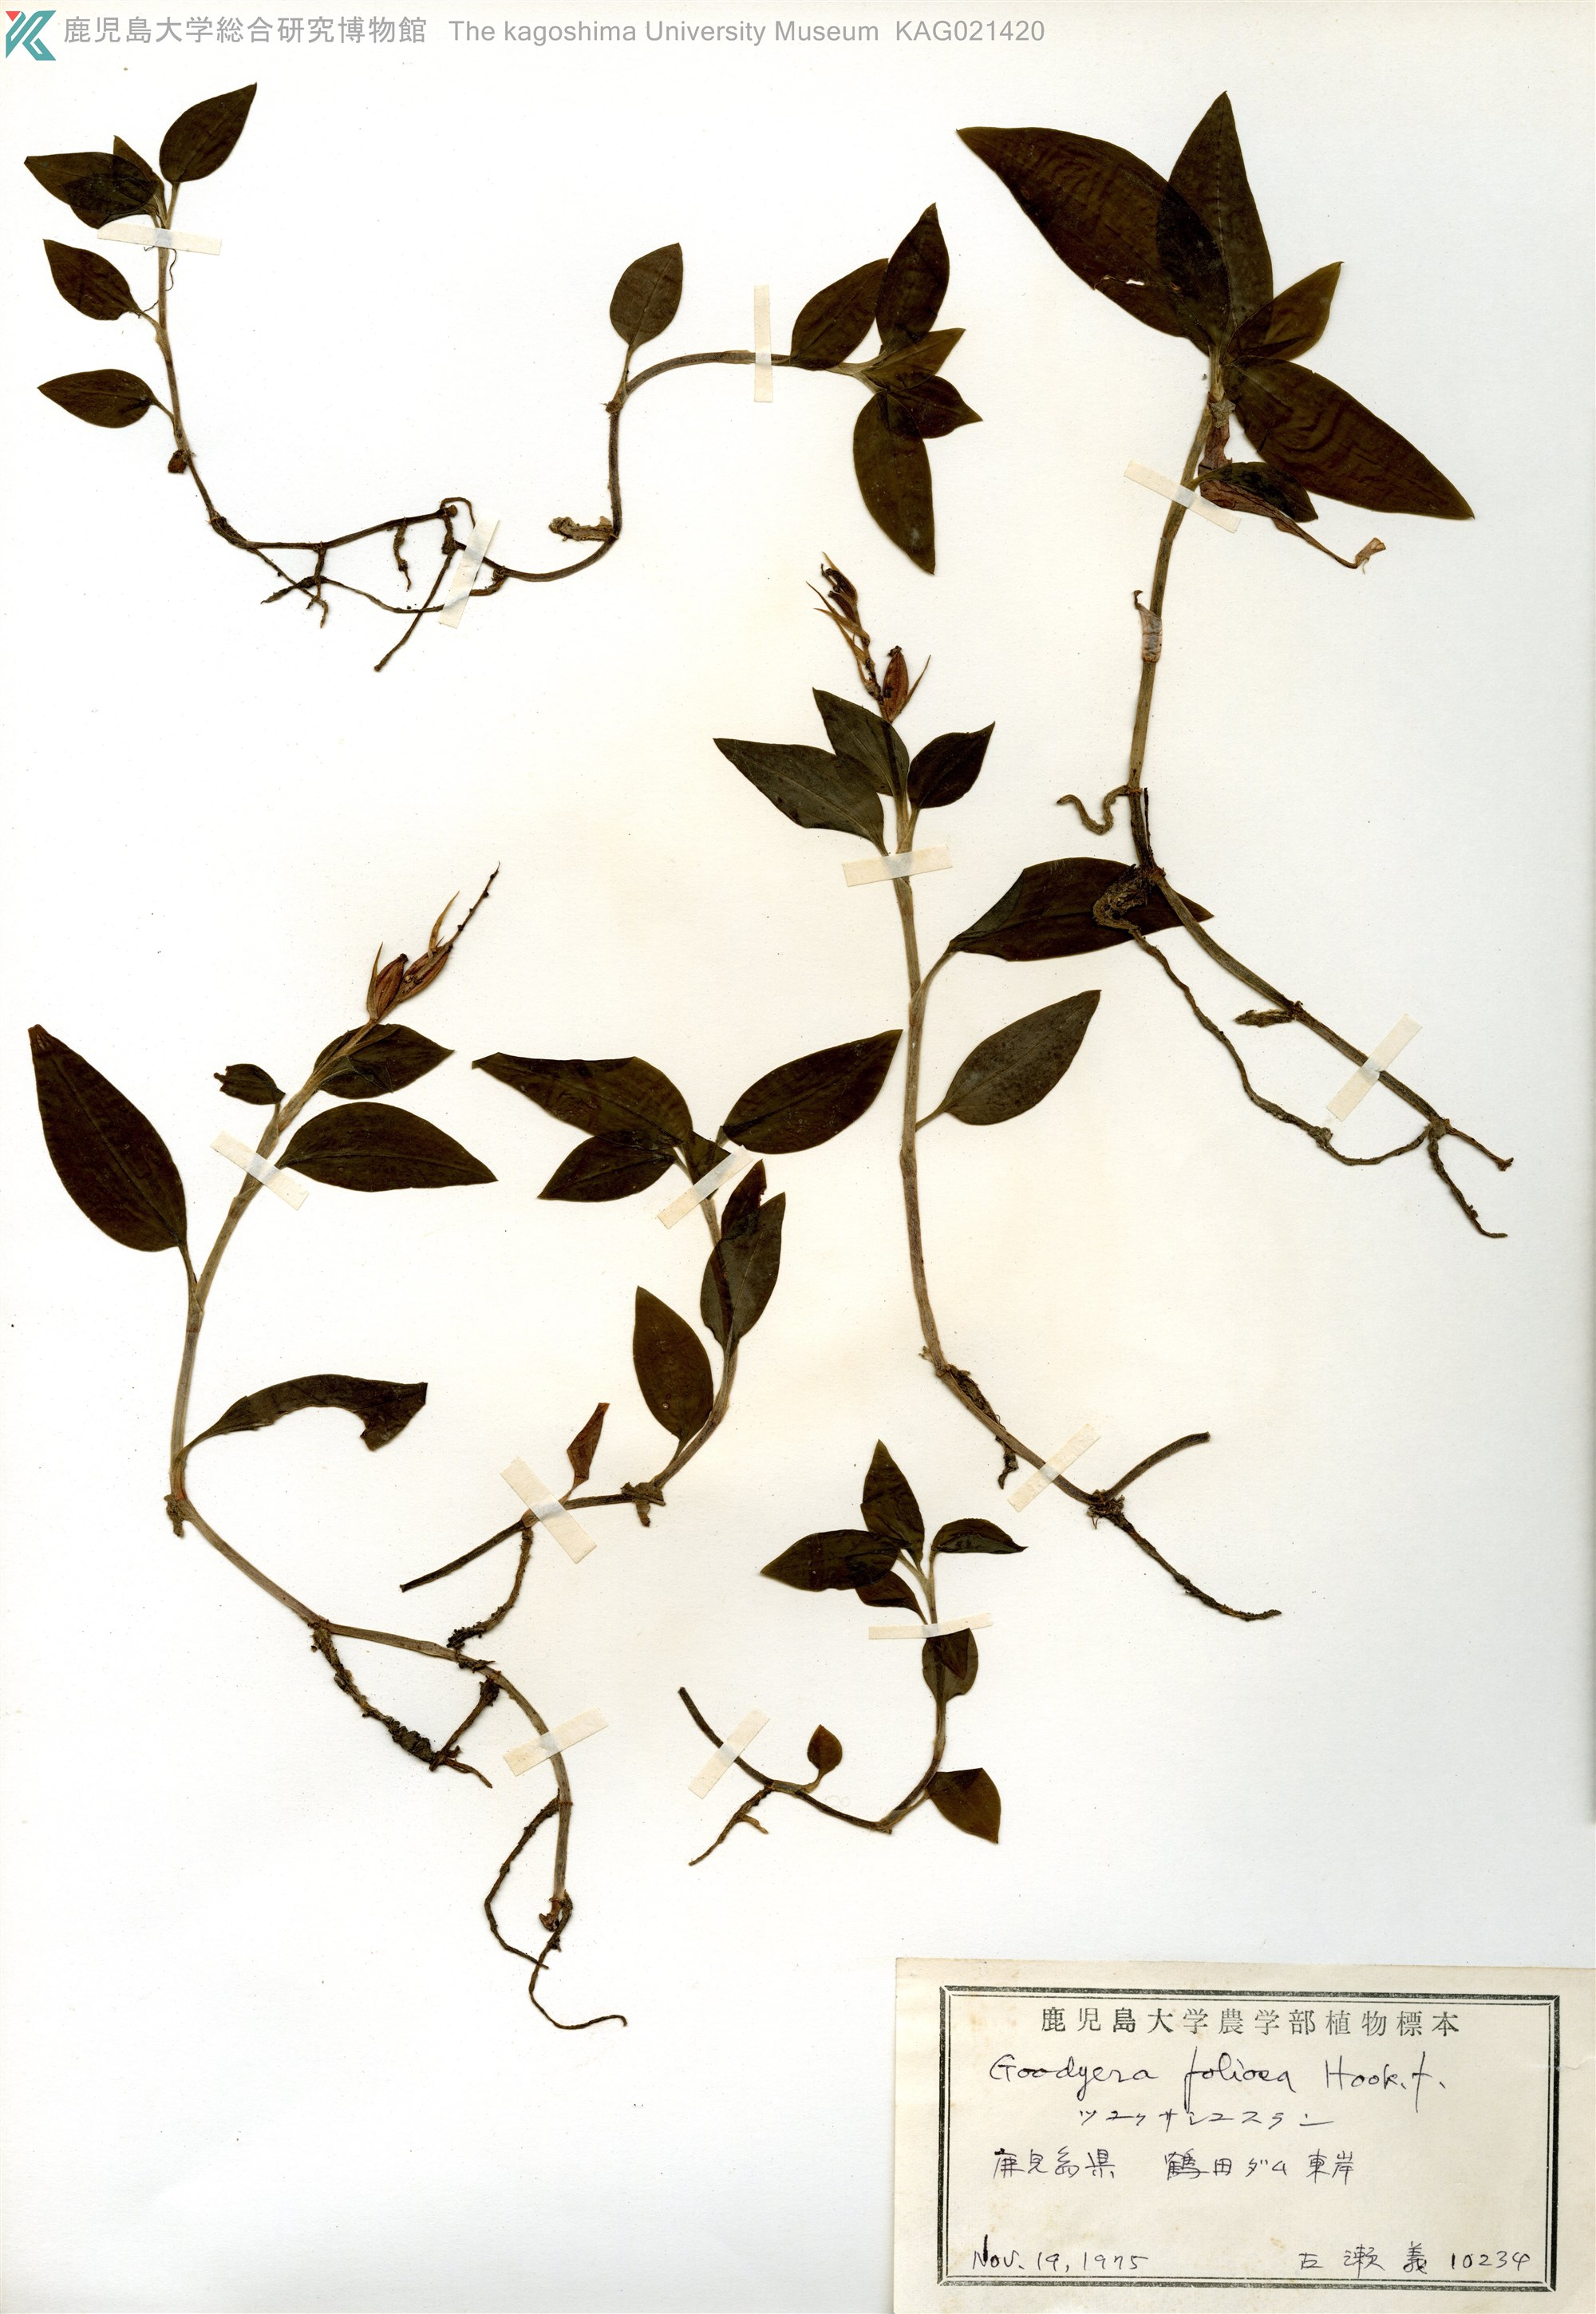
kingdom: Plantae
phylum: Tracheophyta
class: Liliopsida
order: Asparagales
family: Orchidaceae
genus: Goodyera
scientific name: Goodyera foliosa
